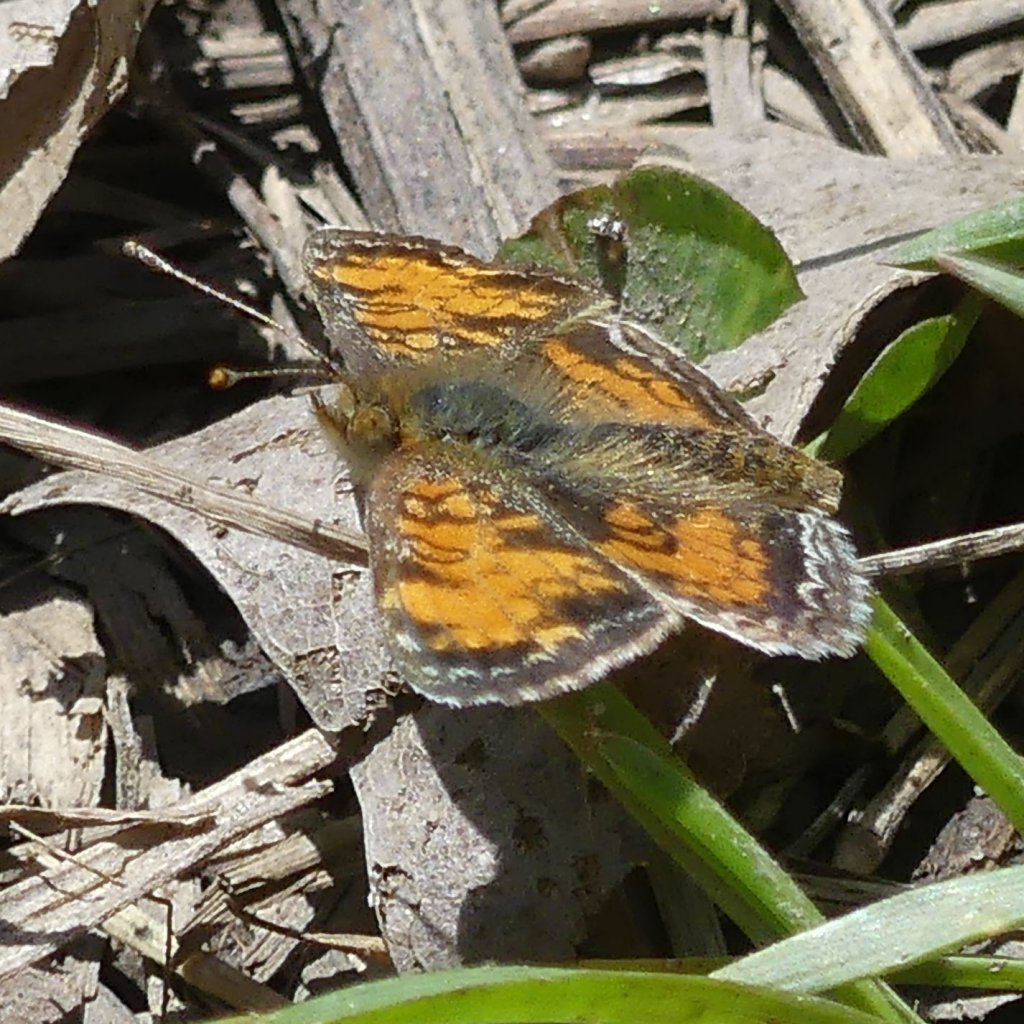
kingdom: Animalia
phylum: Arthropoda
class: Insecta
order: Lepidoptera
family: Nymphalidae
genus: Phyciodes
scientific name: Phyciodes tharos
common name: Northern Crescent
